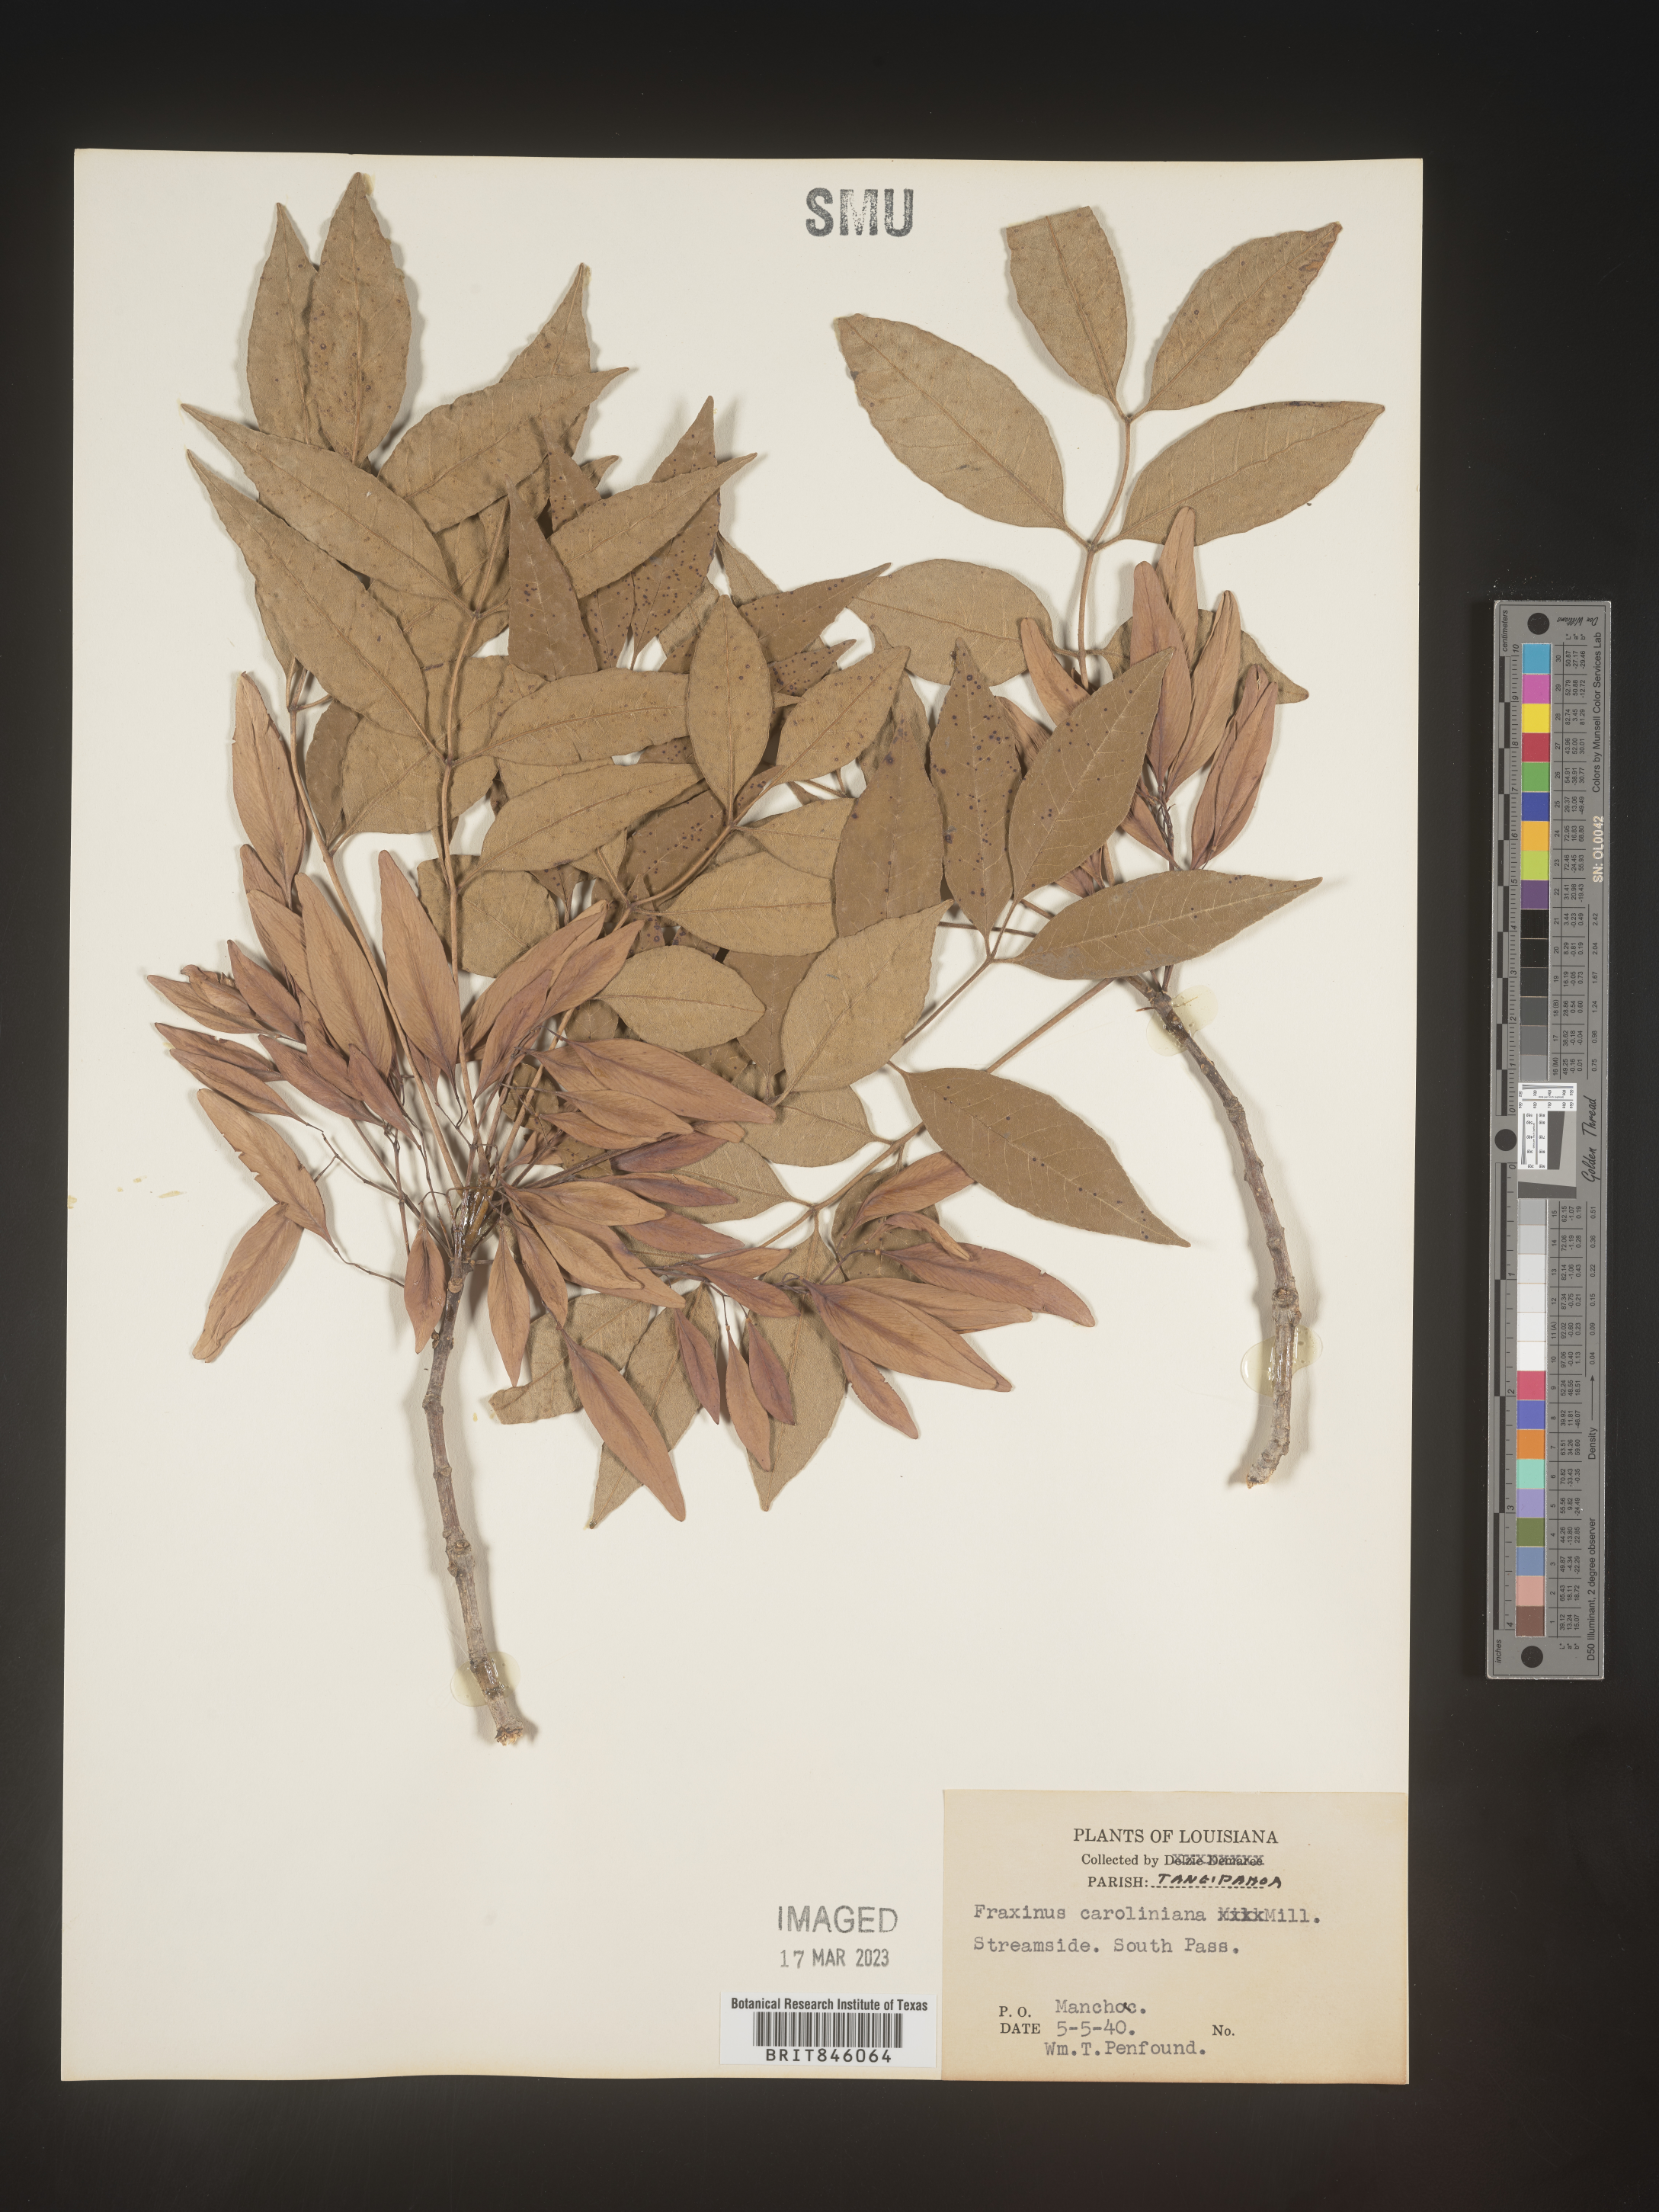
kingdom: Plantae
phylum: Tracheophyta
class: Magnoliopsida
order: Lamiales
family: Oleaceae
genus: Fraxinus
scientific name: Fraxinus caroliniana
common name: Carolina ash
